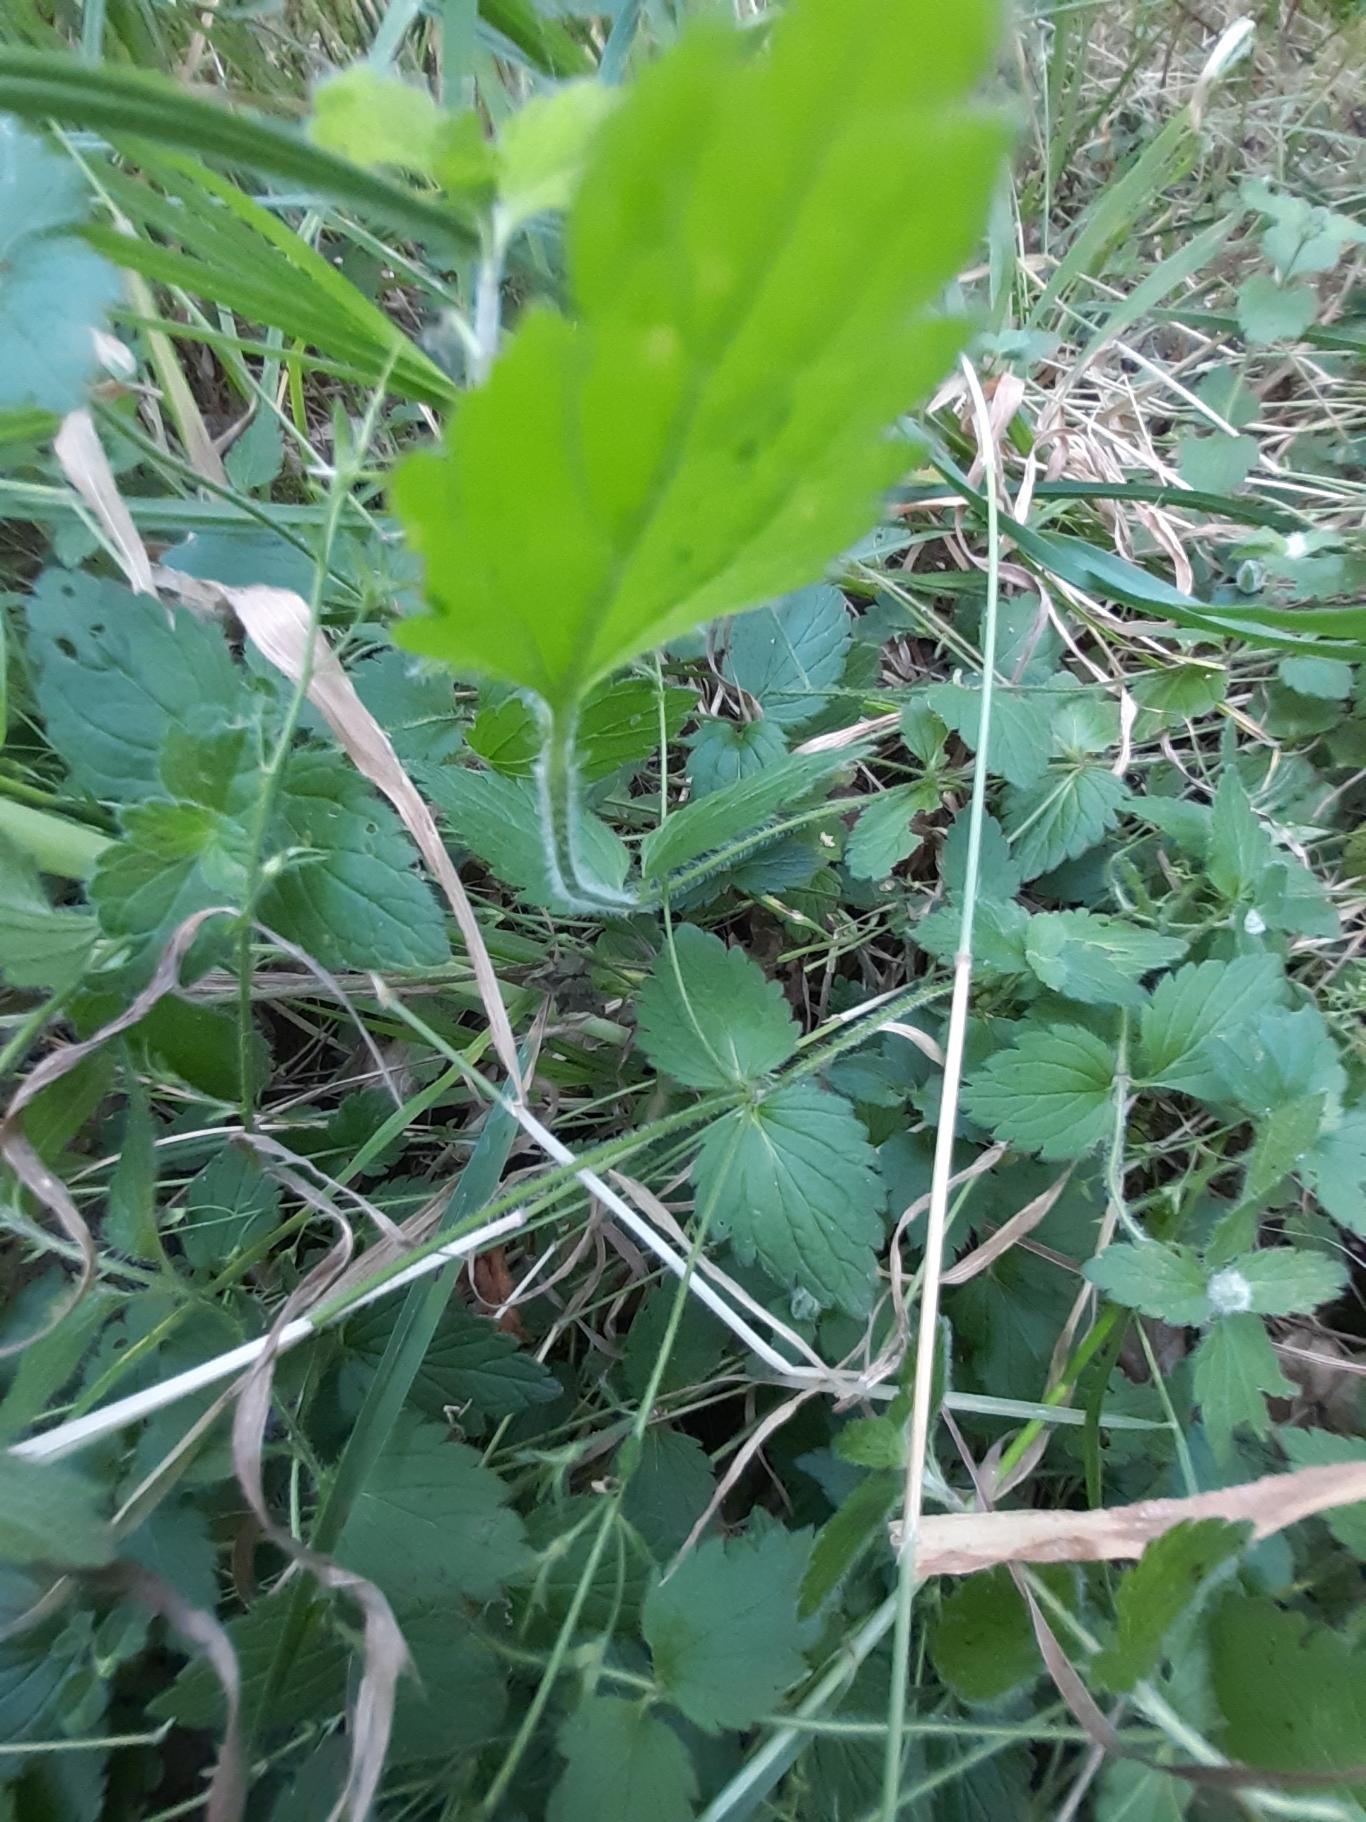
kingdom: Plantae
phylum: Tracheophyta
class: Magnoliopsida
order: Lamiales
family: Plantaginaceae
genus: Veronica
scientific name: Veronica chamaedrys
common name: Tveskægget ærenpris
